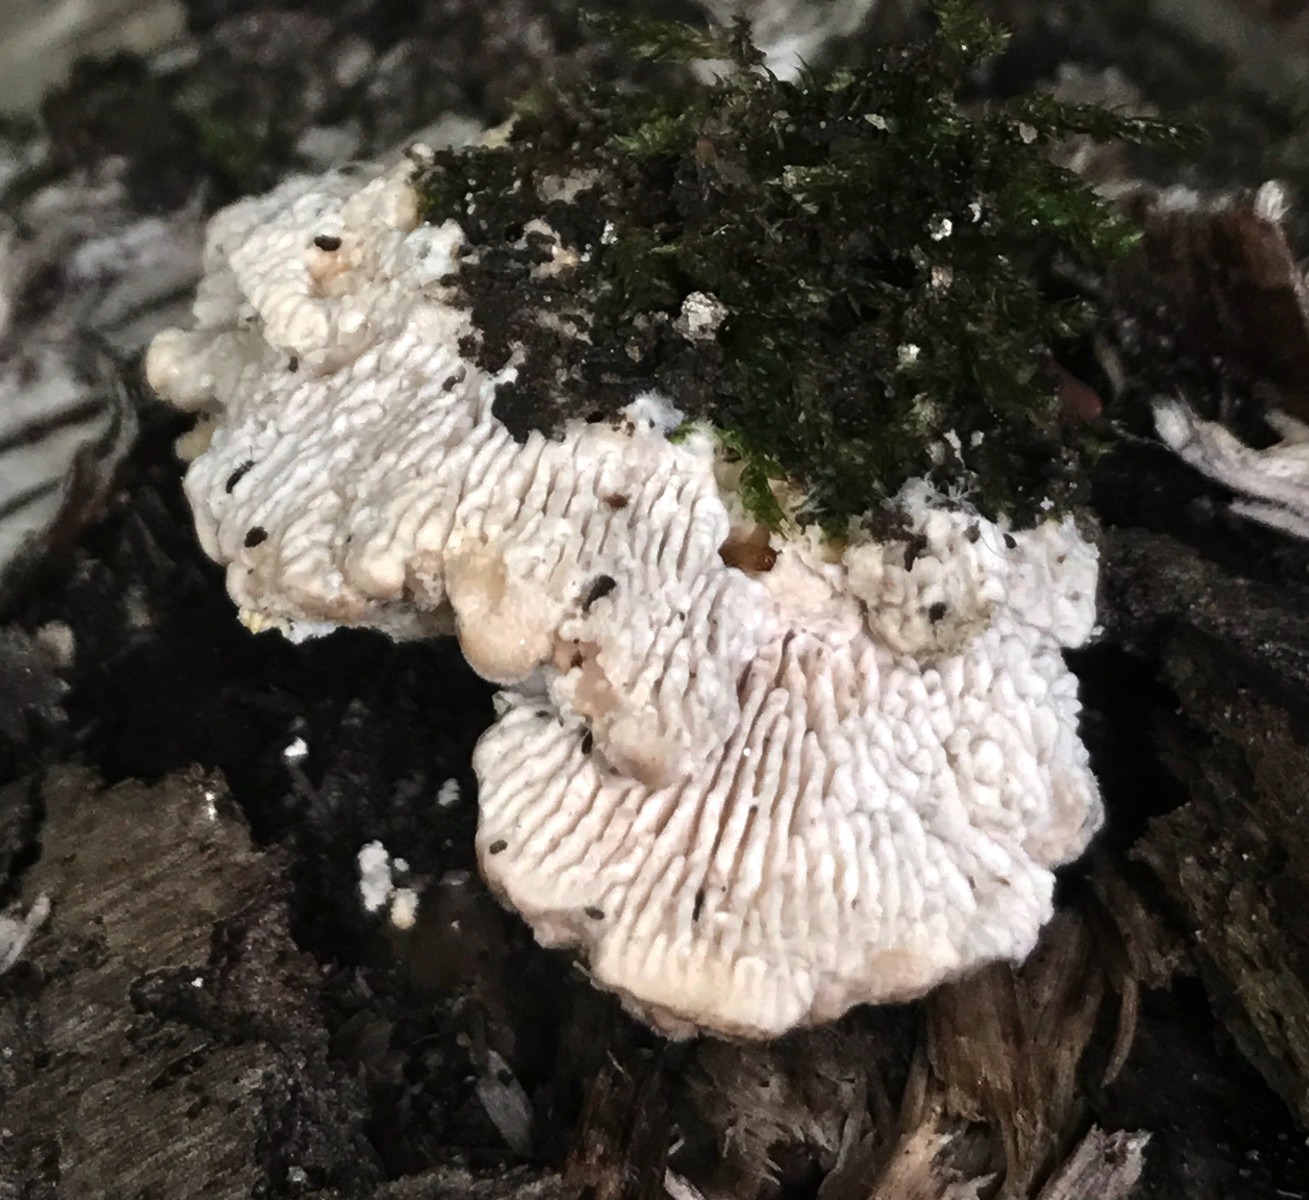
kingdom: Fungi
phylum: Basidiomycota
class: Agaricomycetes
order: Polyporales
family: Polyporaceae
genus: Lenzites
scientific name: Lenzites betulinus
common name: birke-læderporesvamp
